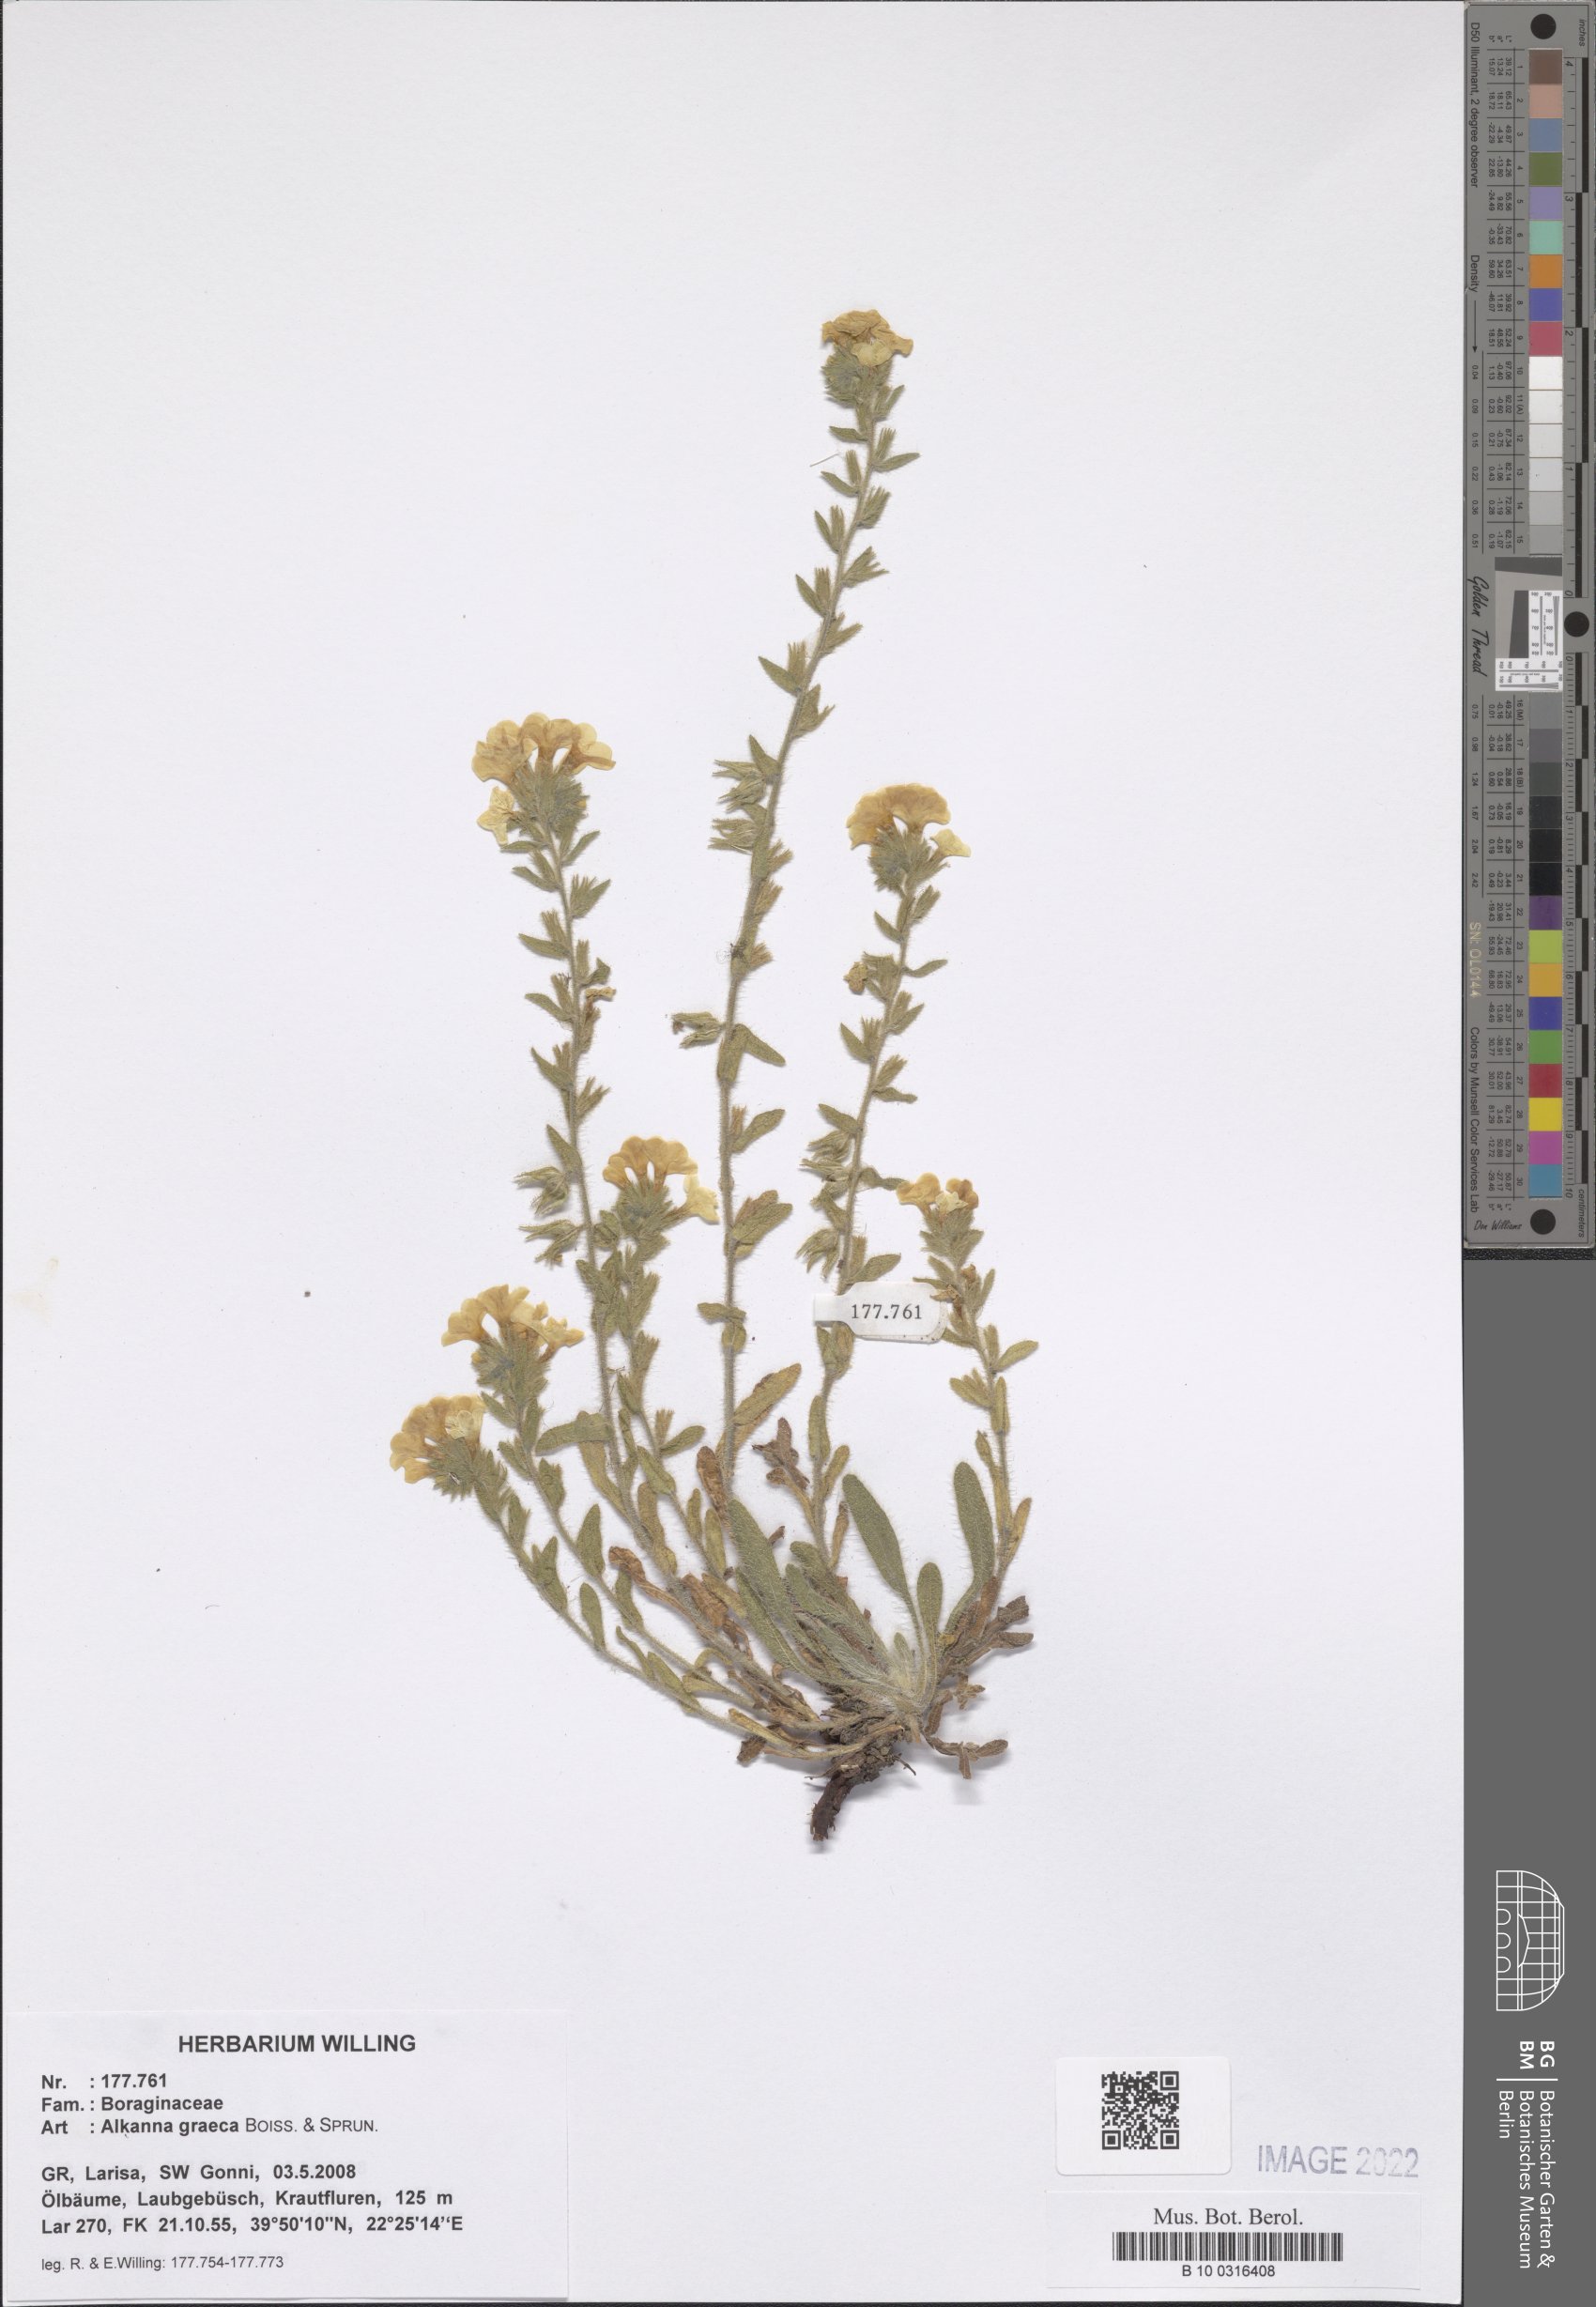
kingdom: Plantae
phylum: Tracheophyta
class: Magnoliopsida
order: Boraginales
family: Boraginaceae
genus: Alkanna
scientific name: Alkanna graeca
